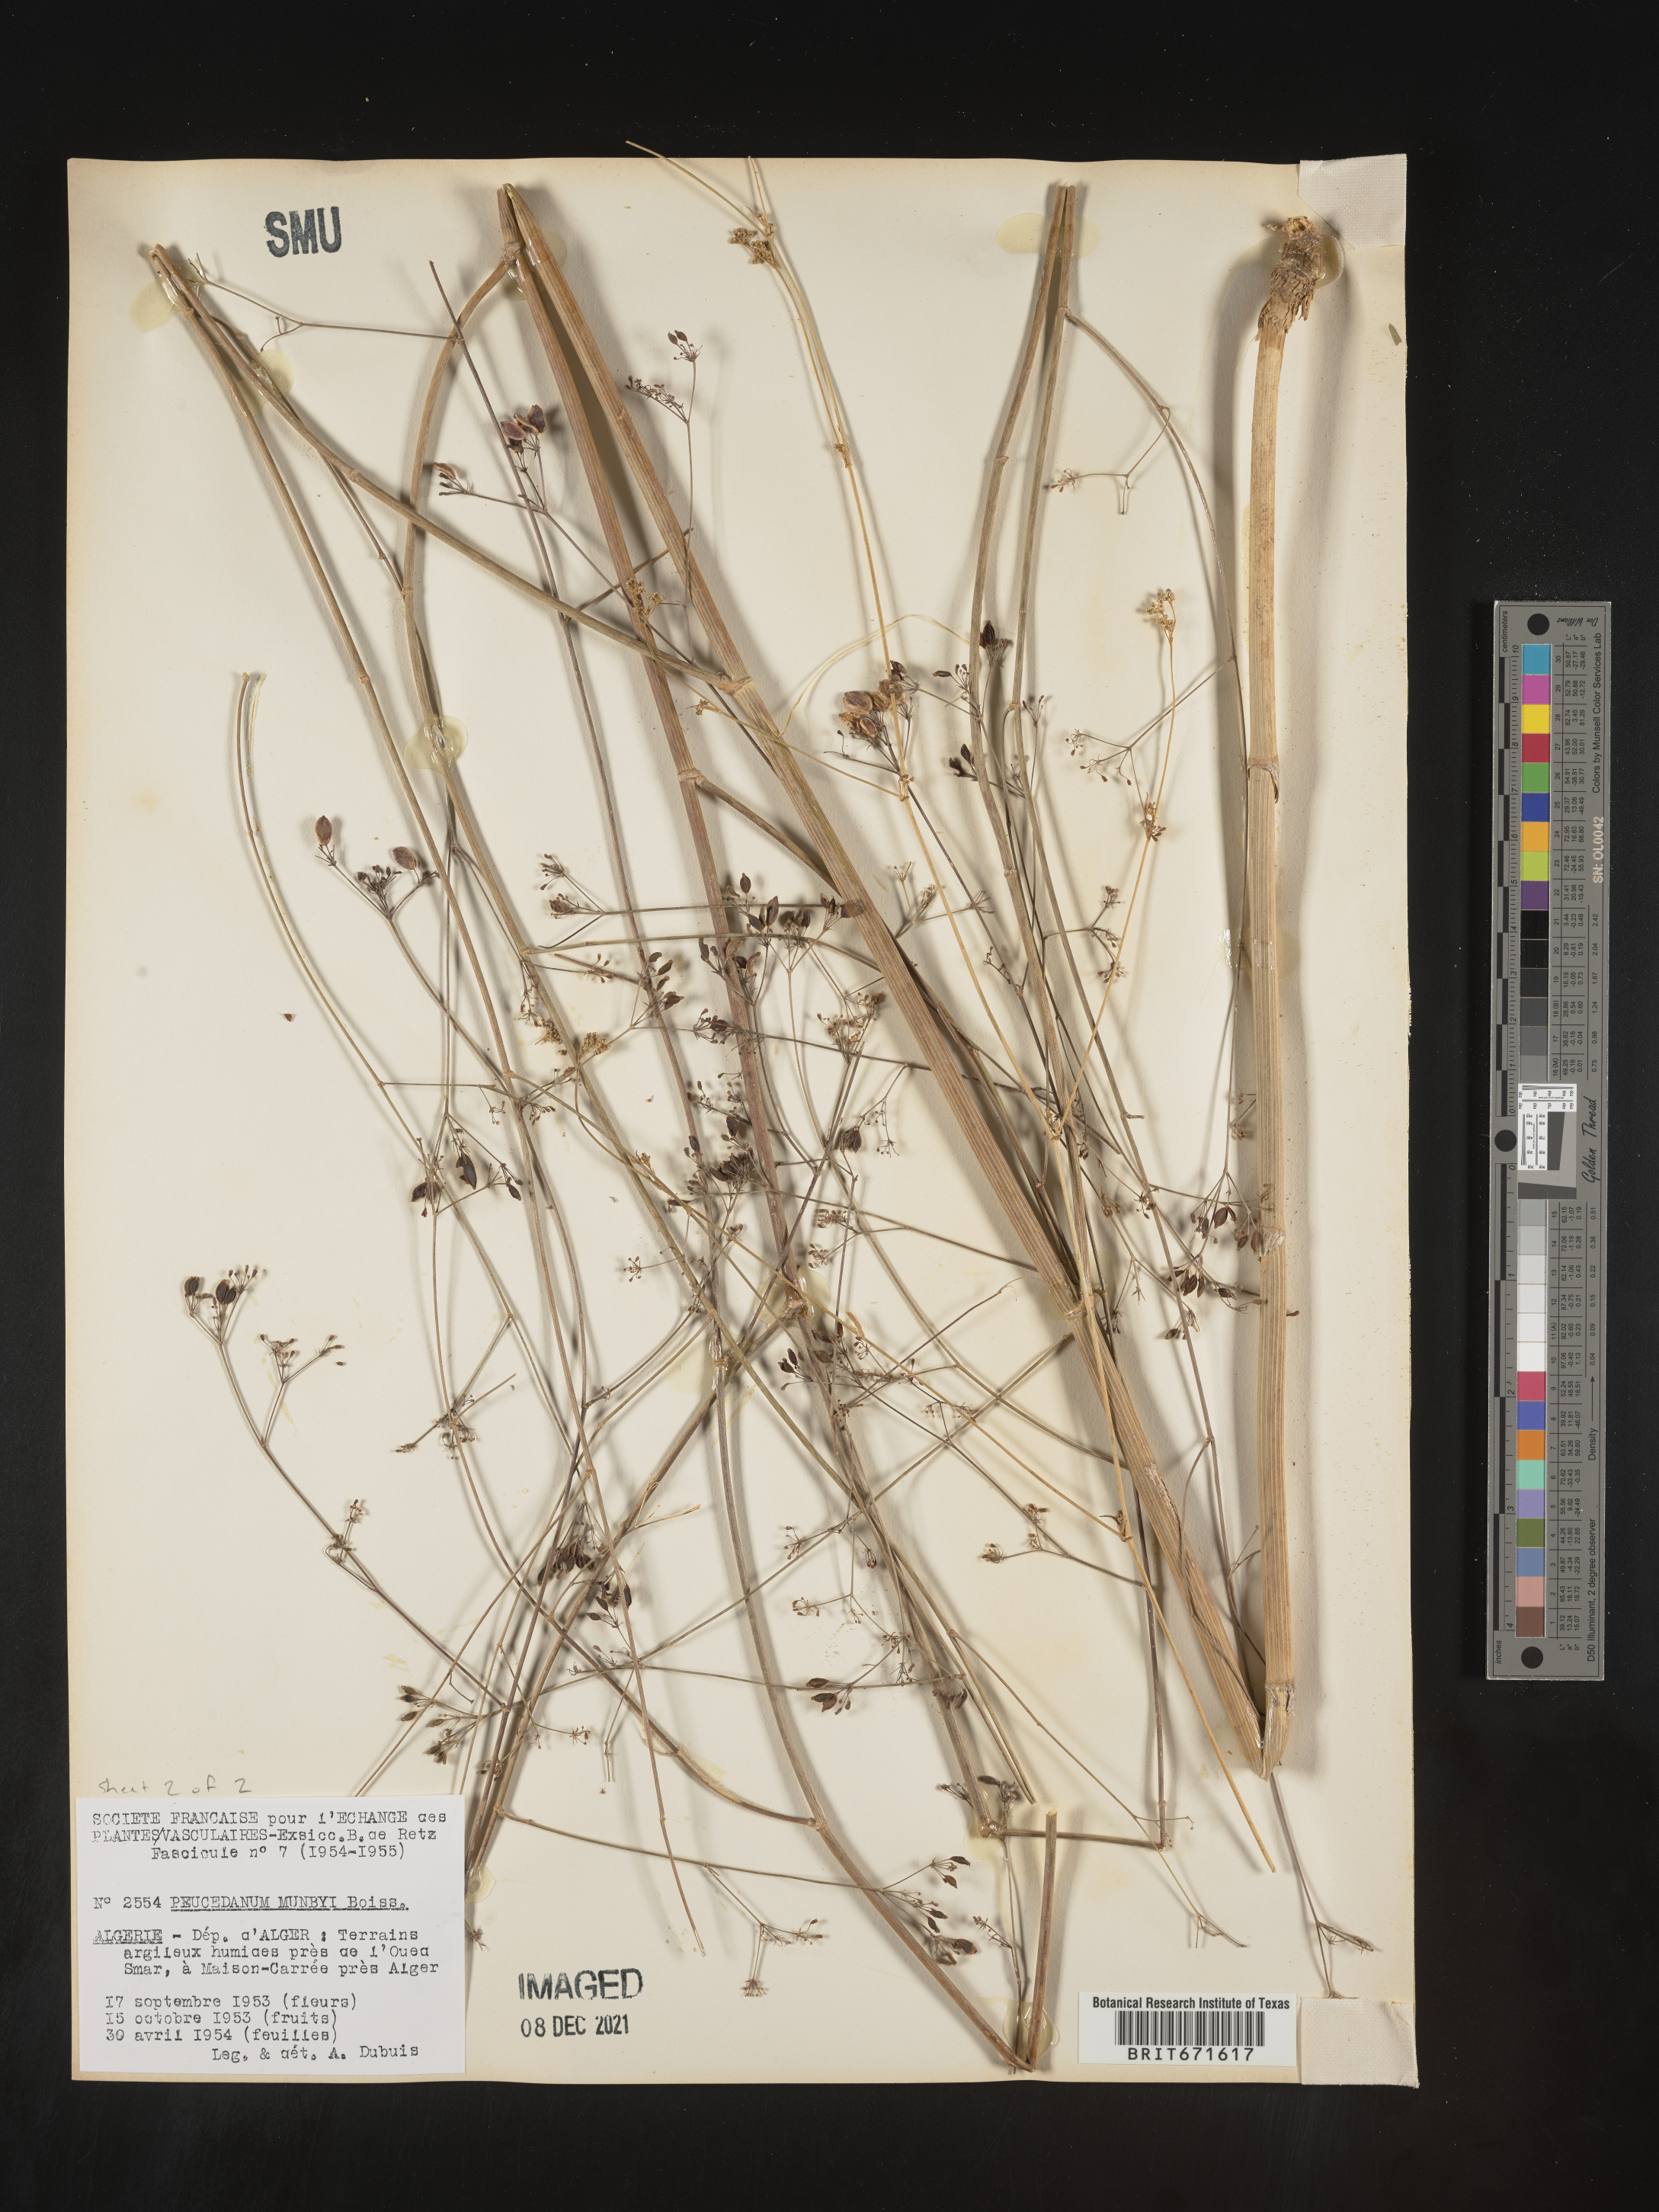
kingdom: Plantae
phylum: Tracheophyta
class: Magnoliopsida
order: Apiales
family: Apiaceae
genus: Peucedanum
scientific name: Peucedanum
